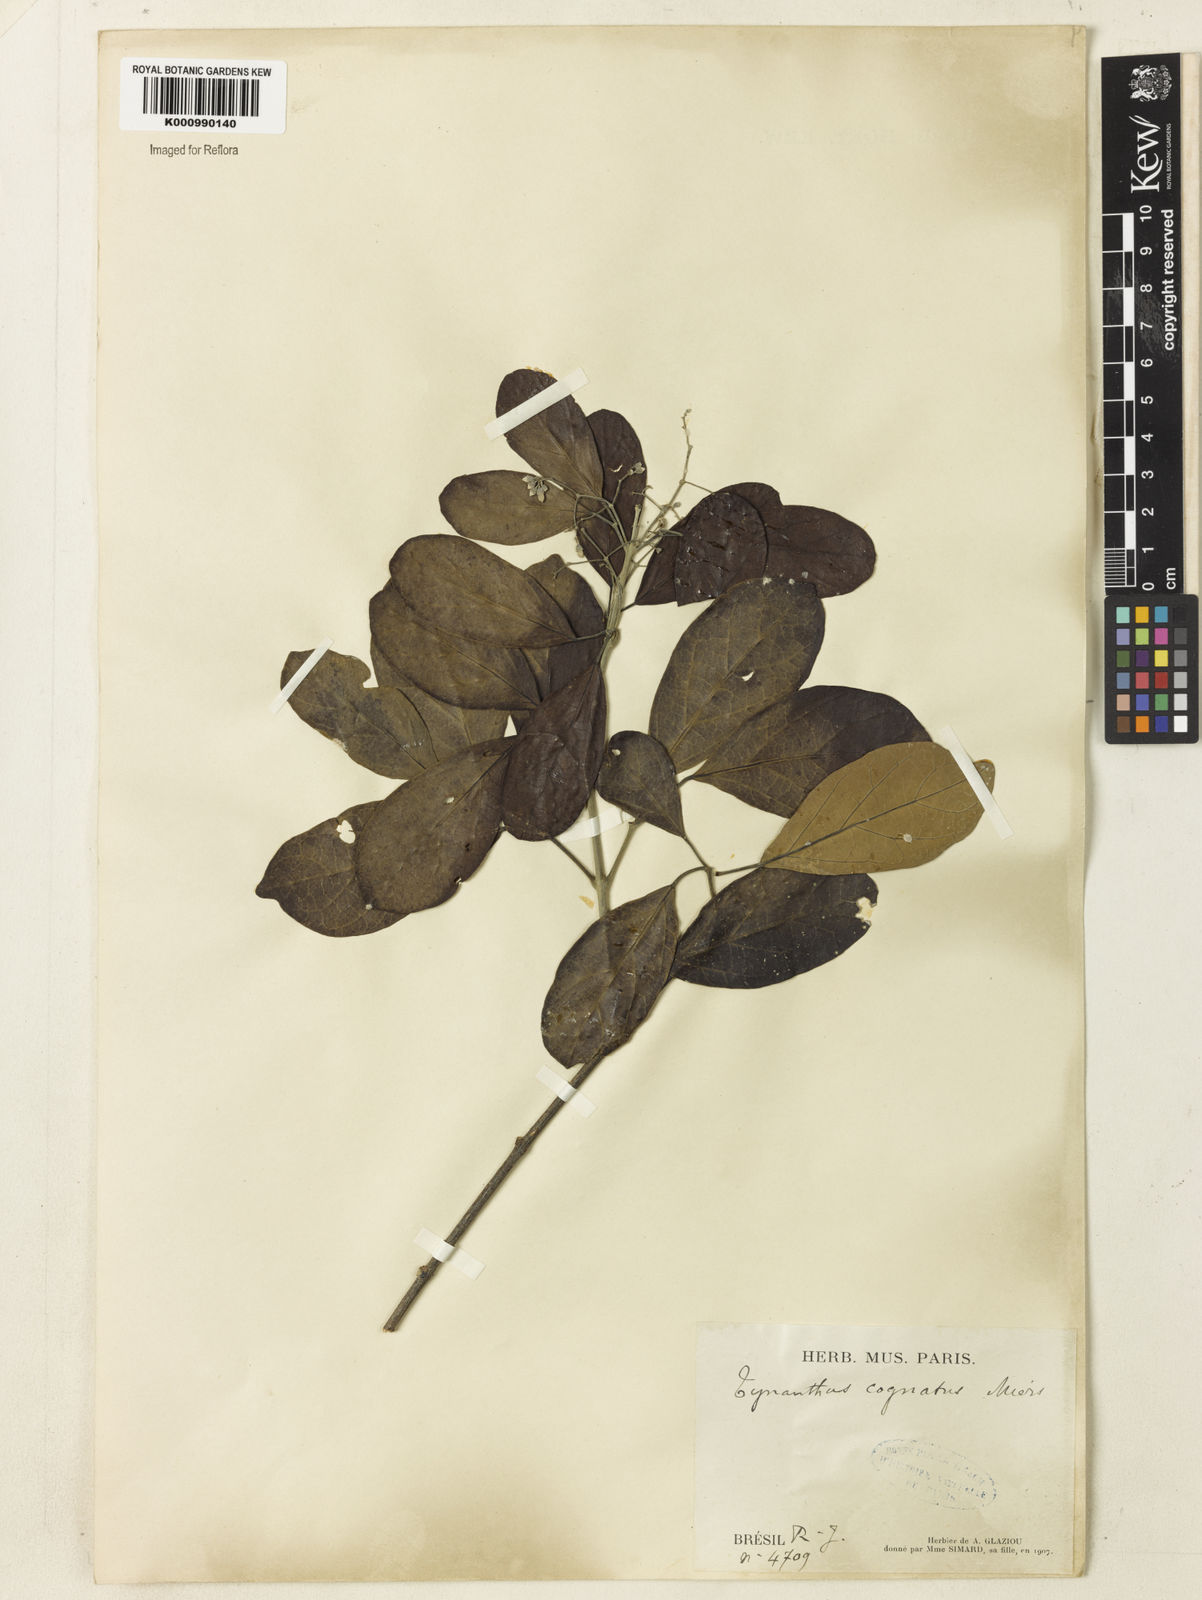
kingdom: Plantae
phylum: Tracheophyta
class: Magnoliopsida
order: Lamiales
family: Bignoniaceae
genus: Tynanthus
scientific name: Tynanthus cognatus
